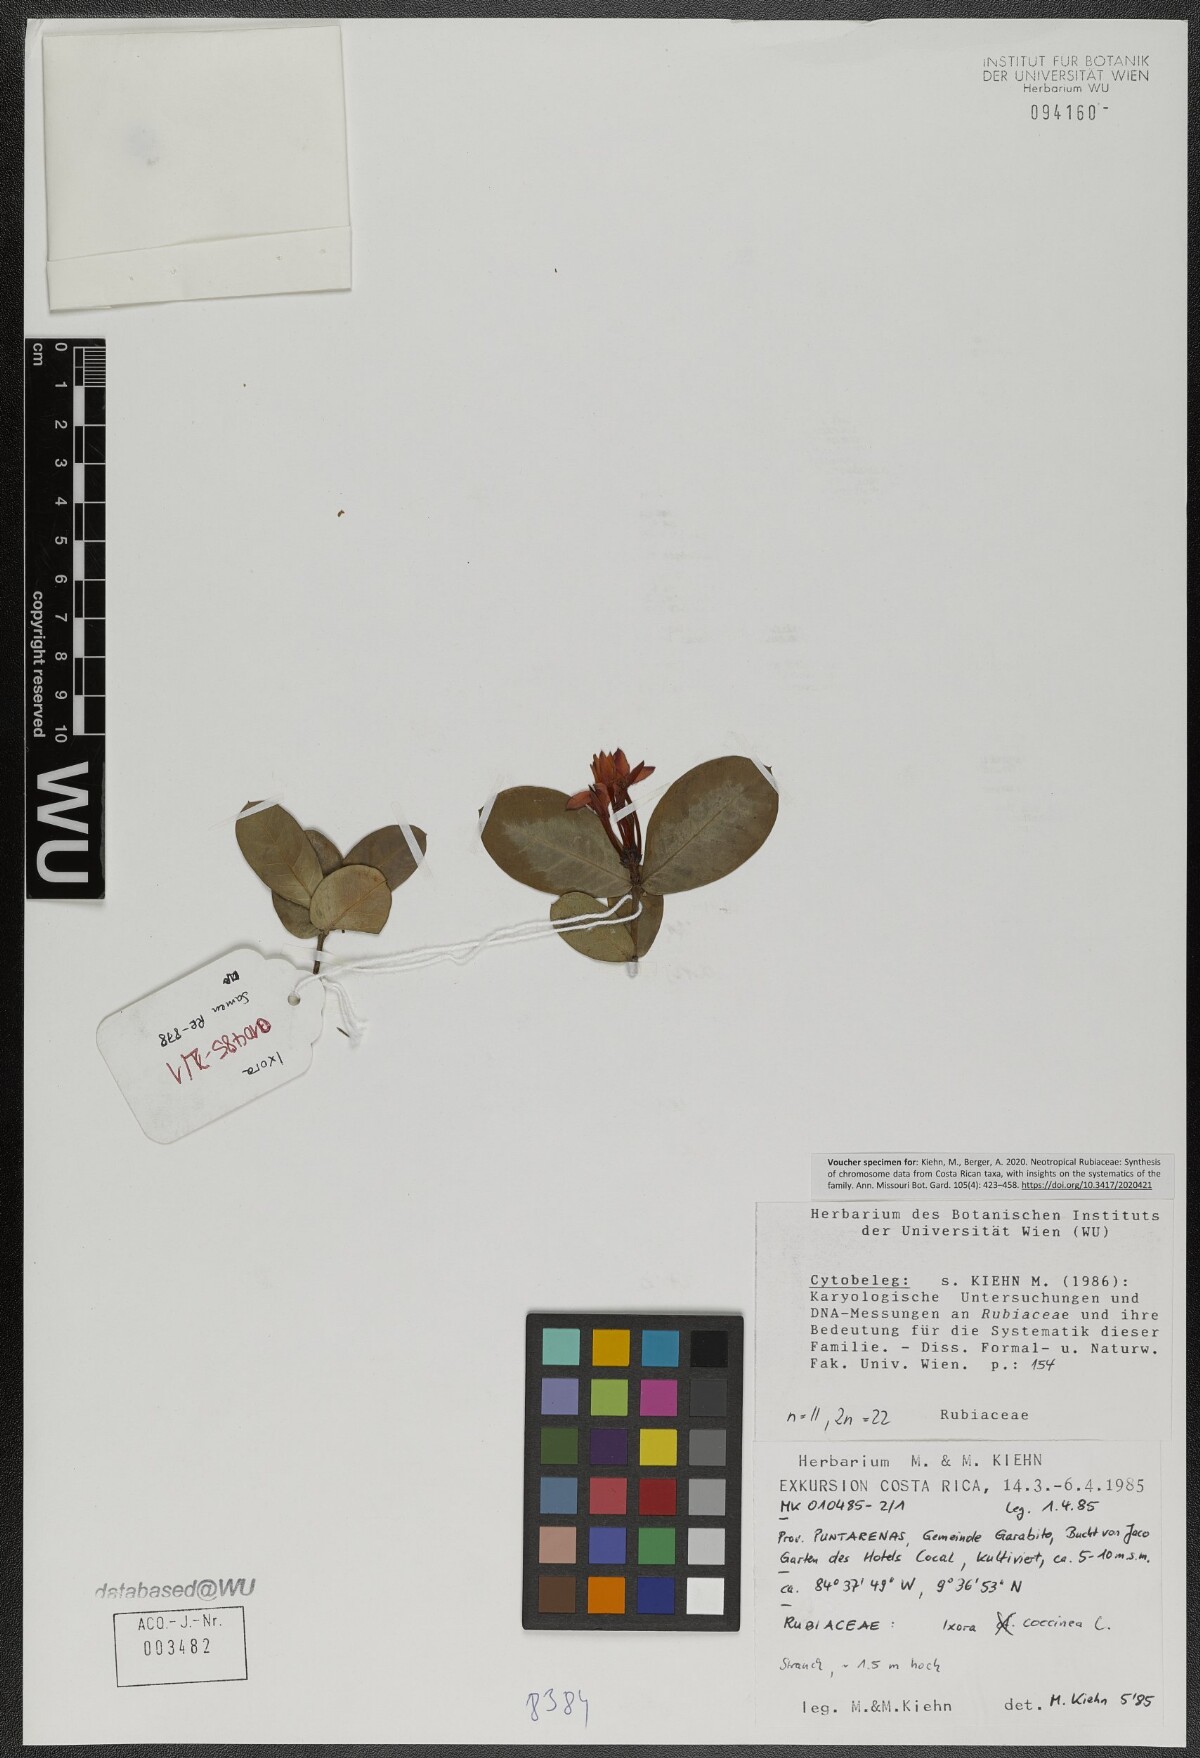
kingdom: Plantae
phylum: Tracheophyta
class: Magnoliopsida
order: Gentianales
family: Rubiaceae
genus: Ixora
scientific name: Ixora coccinea
